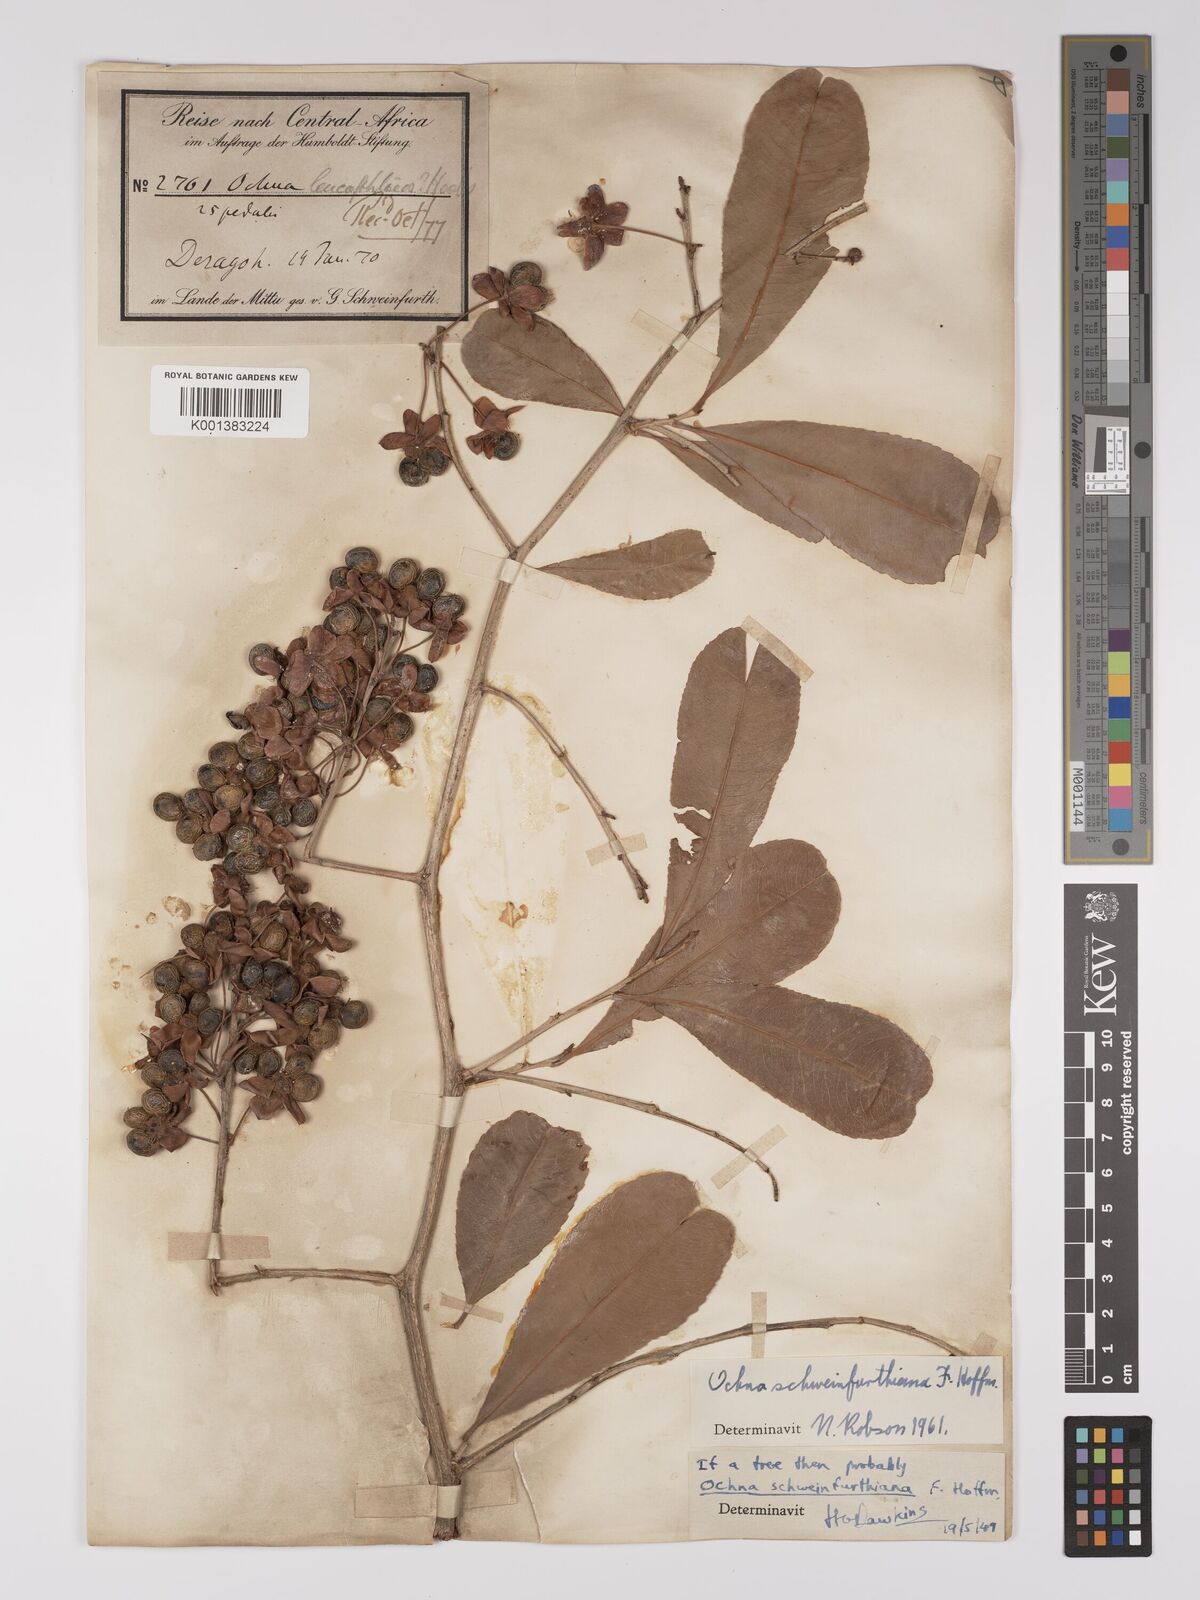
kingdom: Plantae
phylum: Tracheophyta
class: Magnoliopsida
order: Malpighiales
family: Ochnaceae
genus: Ochna
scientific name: Ochna schweinfurthiana
